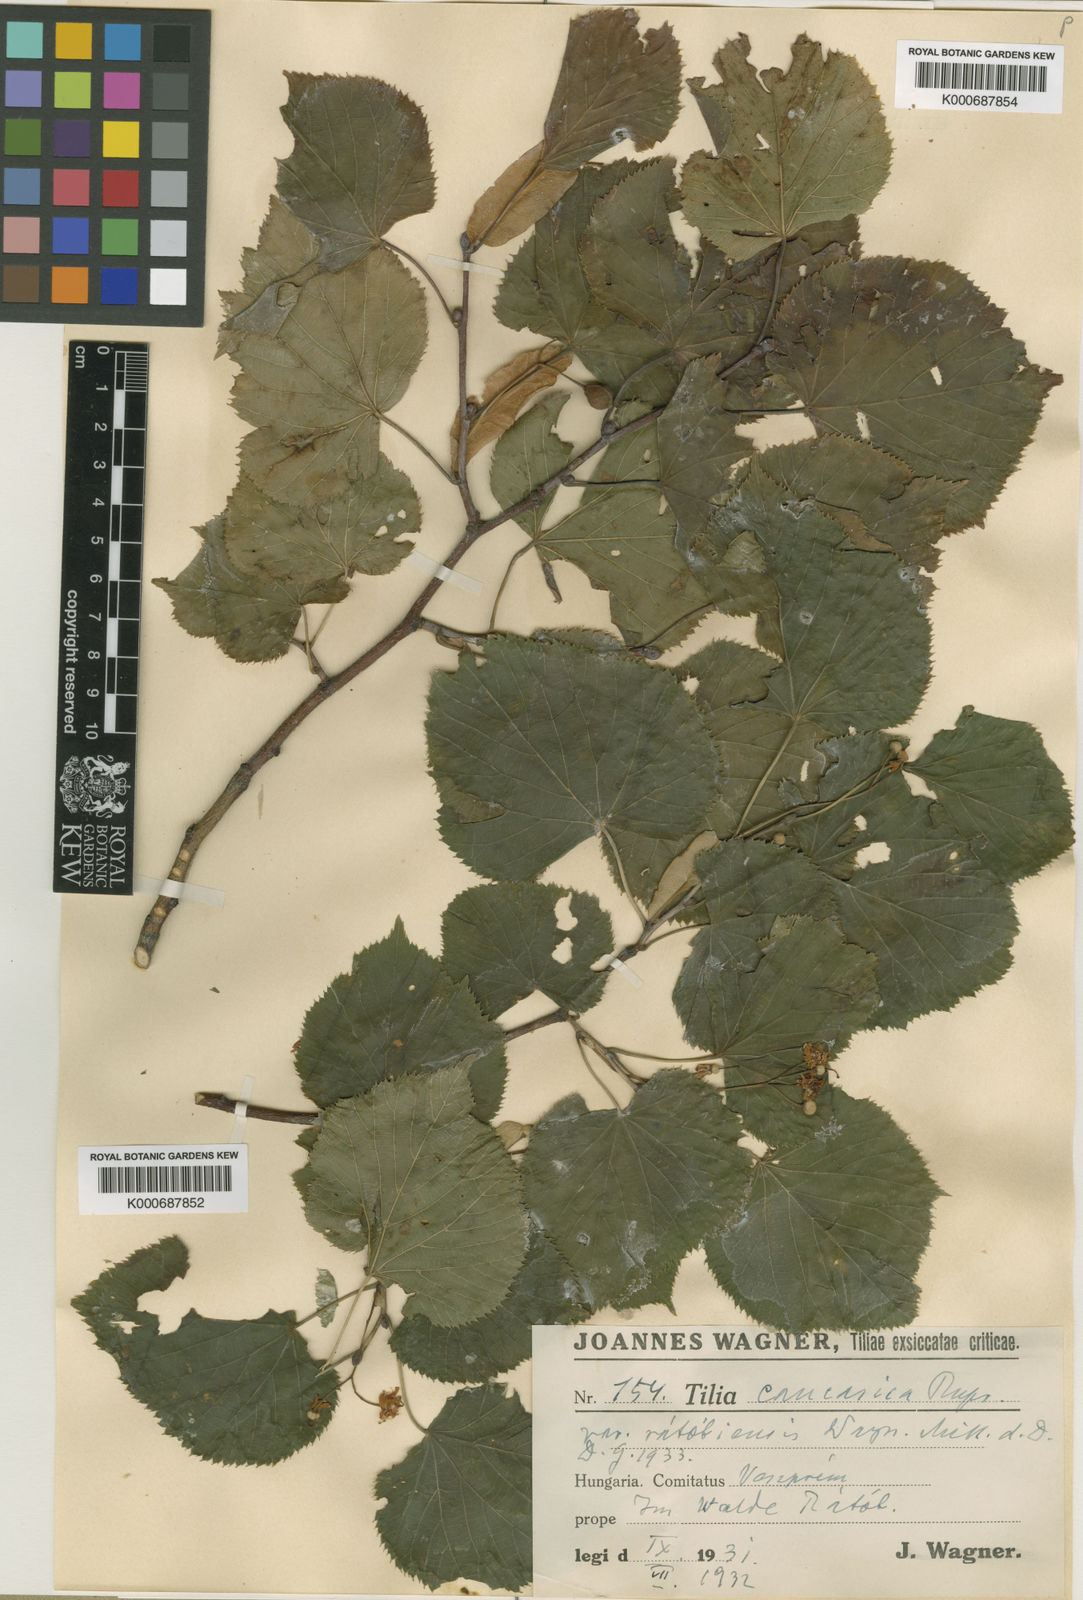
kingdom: Plantae
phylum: Tracheophyta
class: Magnoliopsida
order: Malvales
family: Malvaceae
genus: Tilia
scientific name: Tilia platyphyllos
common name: Large-leaved lime
